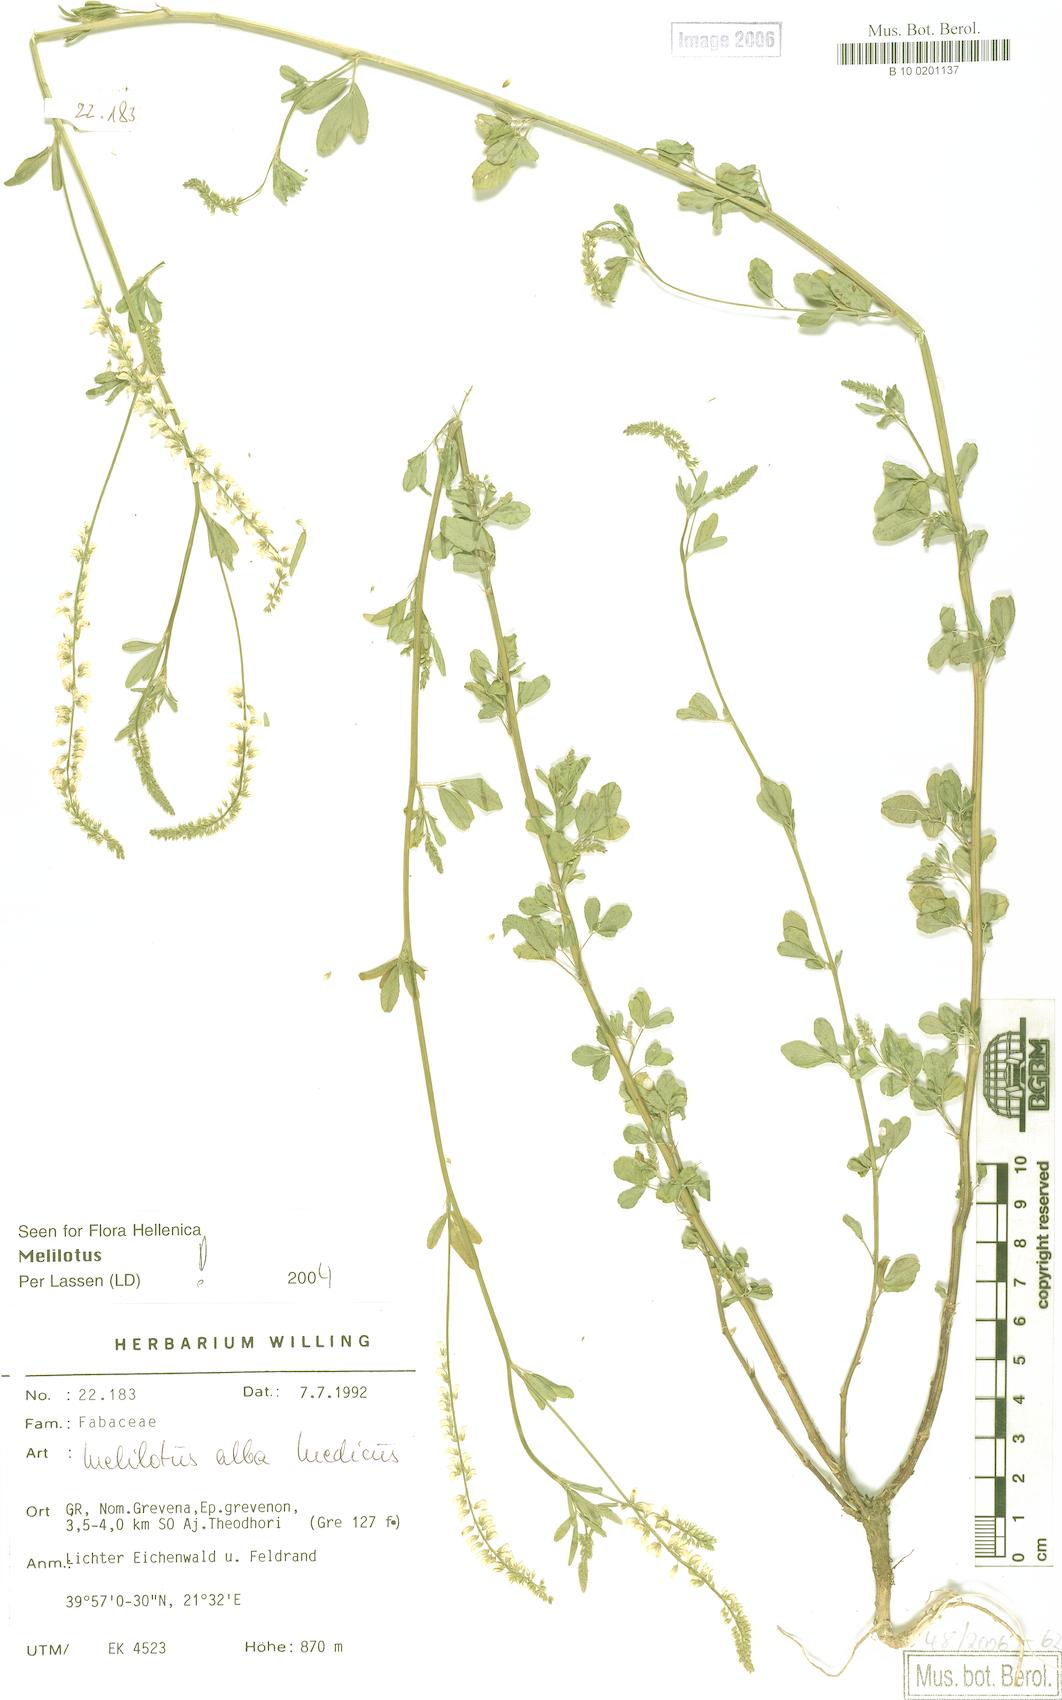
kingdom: Plantae
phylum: Tracheophyta
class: Magnoliopsida
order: Fabales
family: Fabaceae
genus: Melilotus
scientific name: Melilotus albus
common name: White melilot
